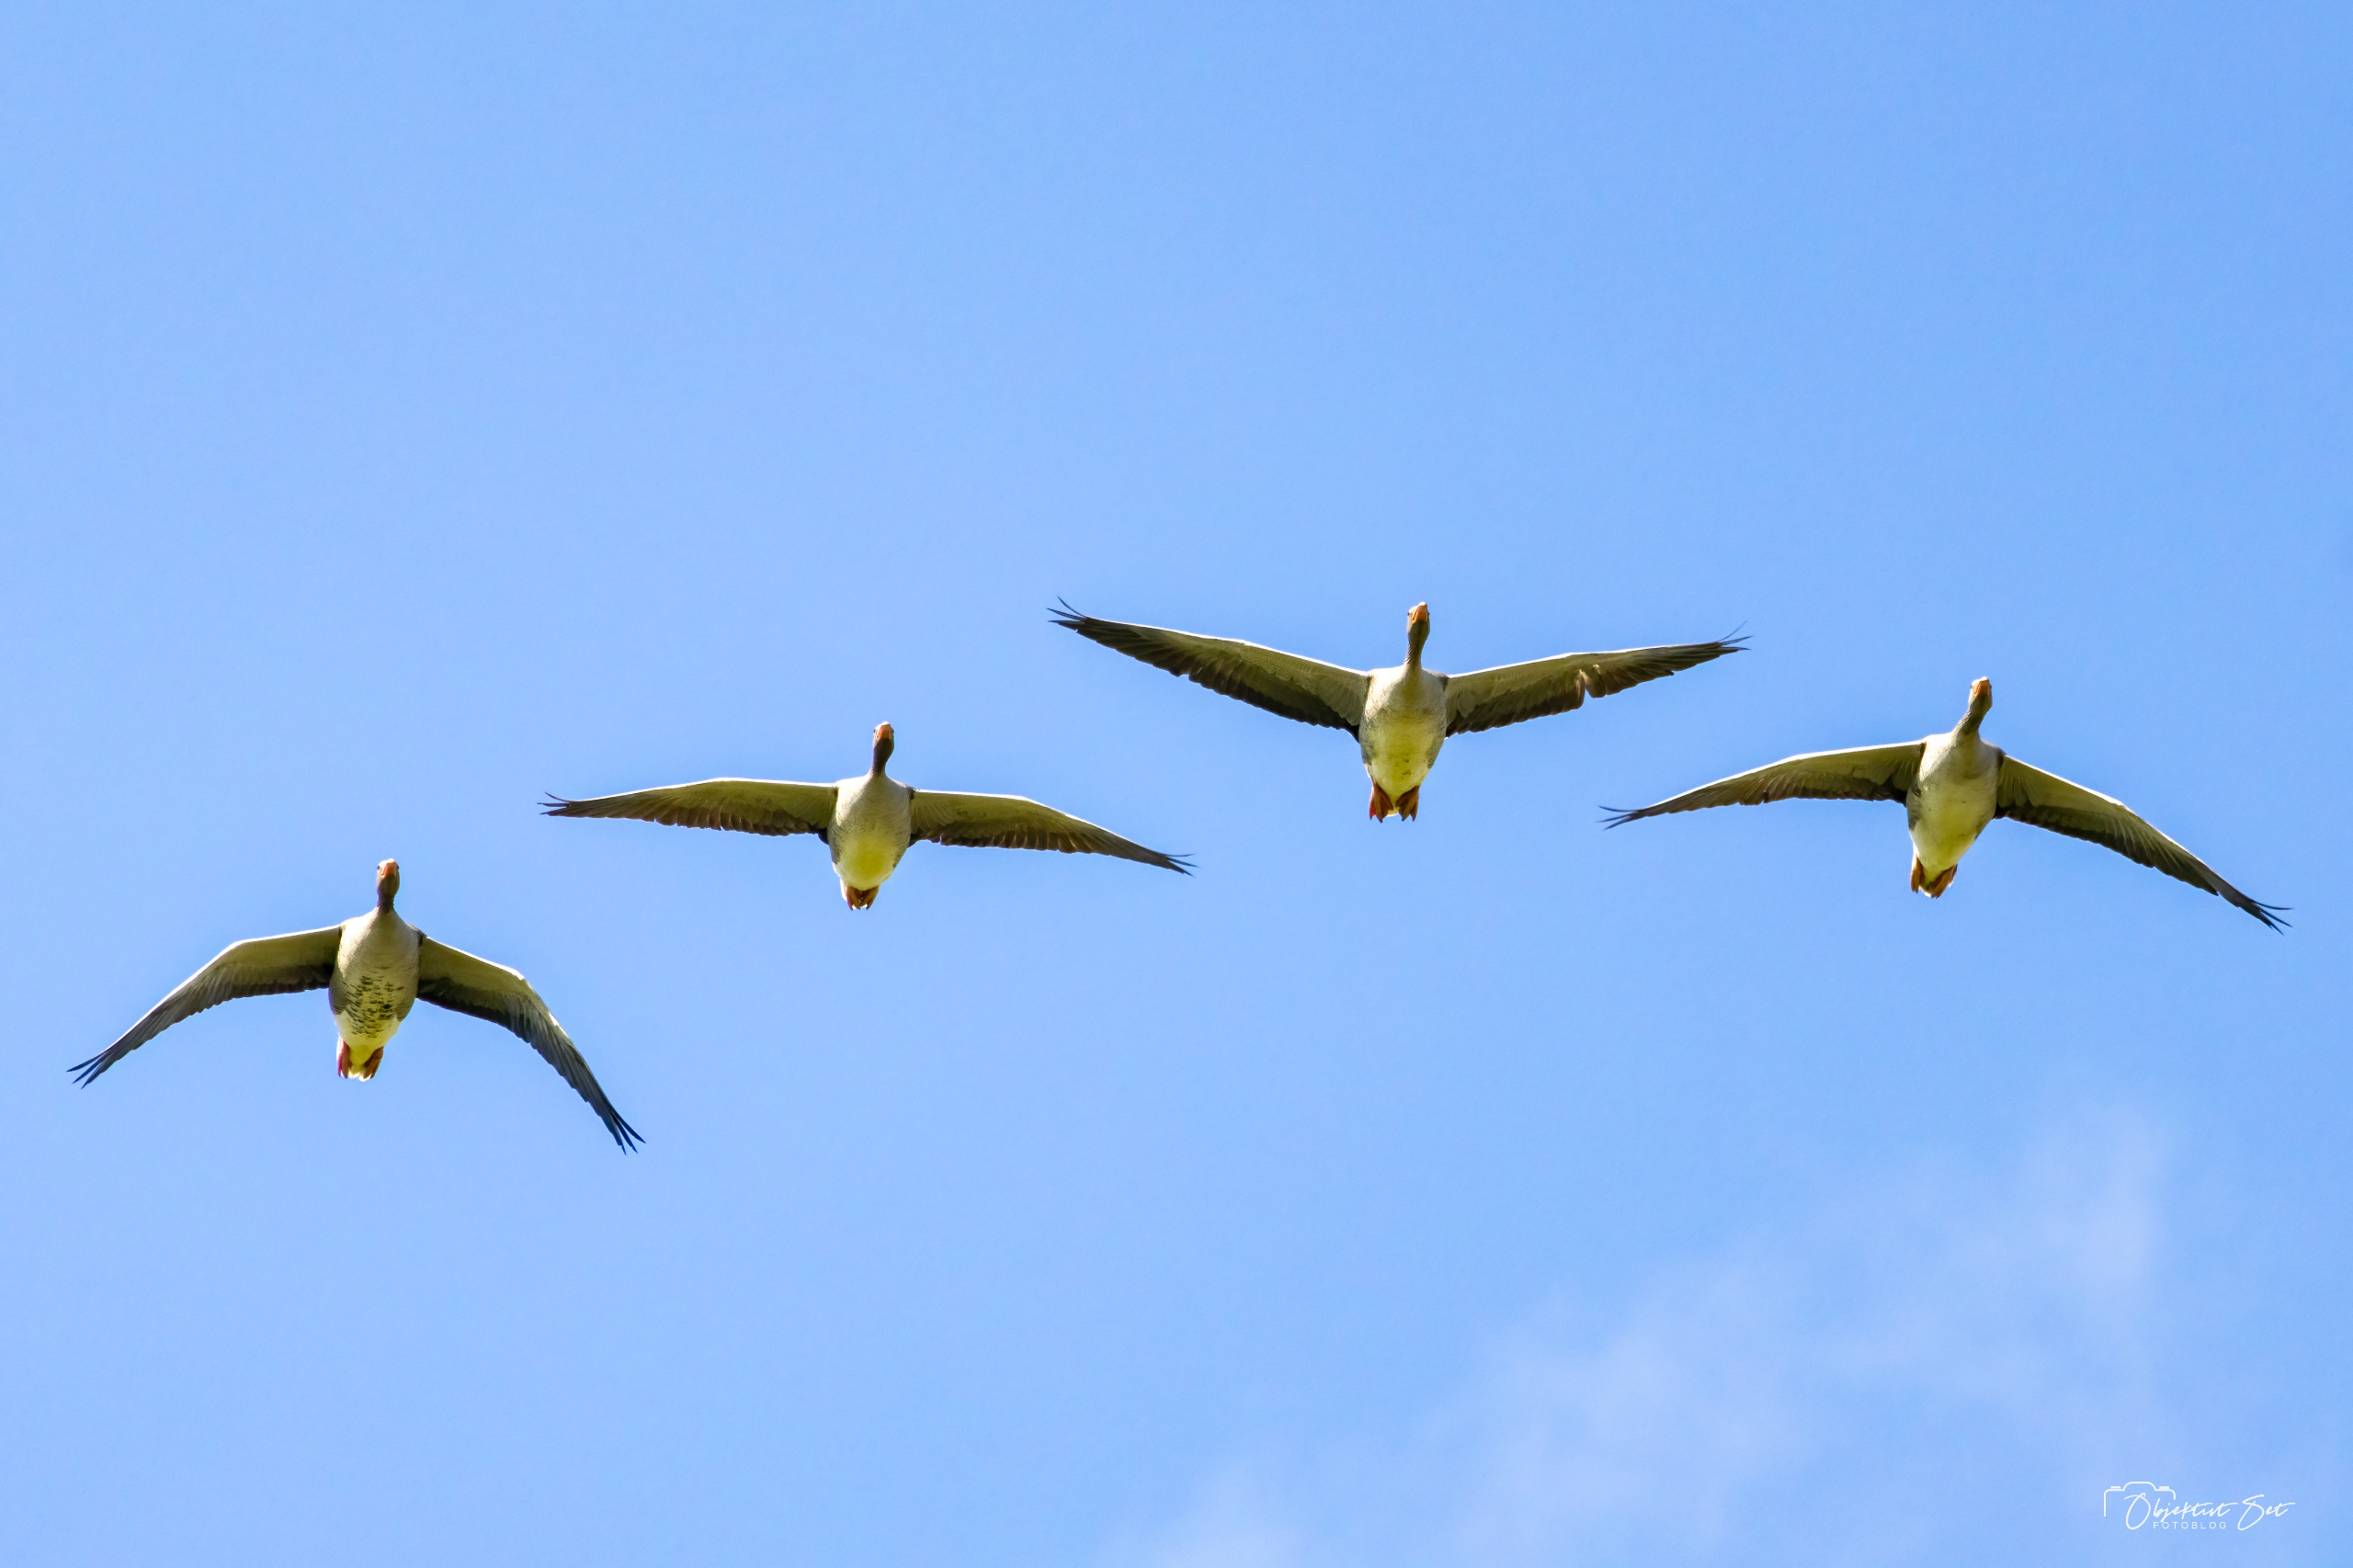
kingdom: Animalia
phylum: Chordata
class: Aves
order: Anseriformes
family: Anatidae
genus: Anser
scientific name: Anser anser
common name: Grågås
